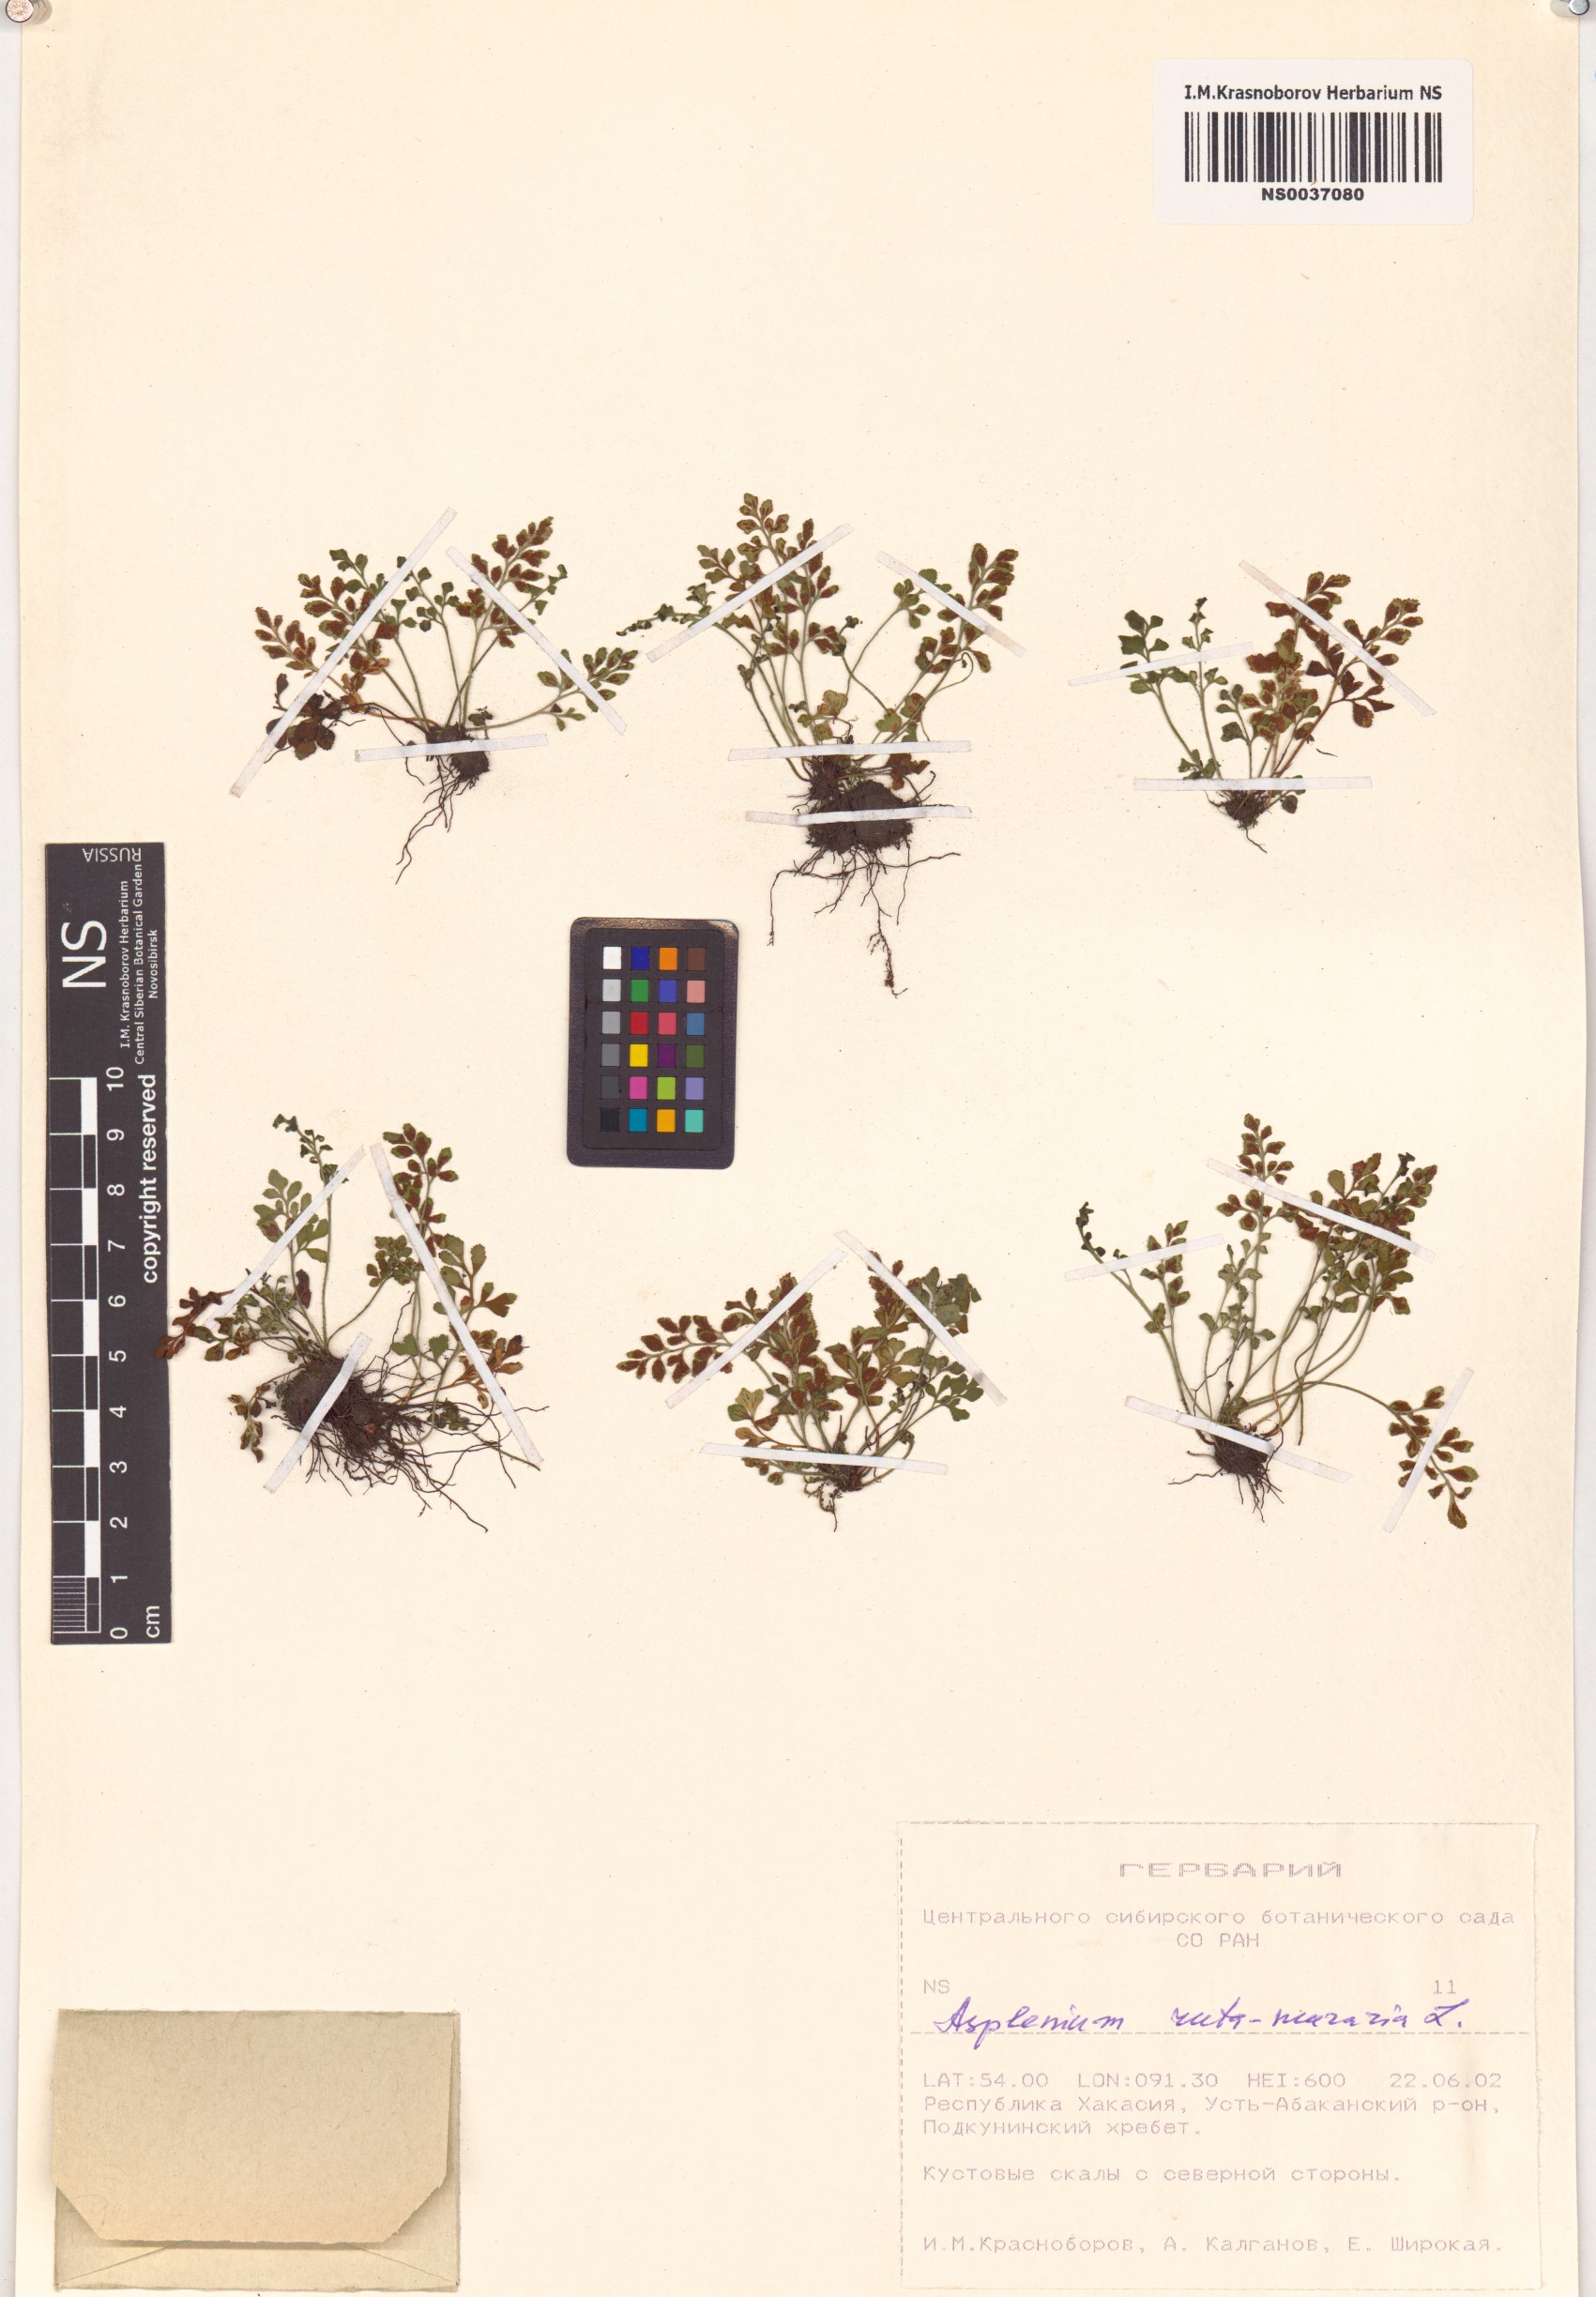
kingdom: Plantae
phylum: Tracheophyta
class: Polypodiopsida
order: Polypodiales
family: Aspleniaceae
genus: Asplenium
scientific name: Asplenium ruta-muraria
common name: Wall-rue
